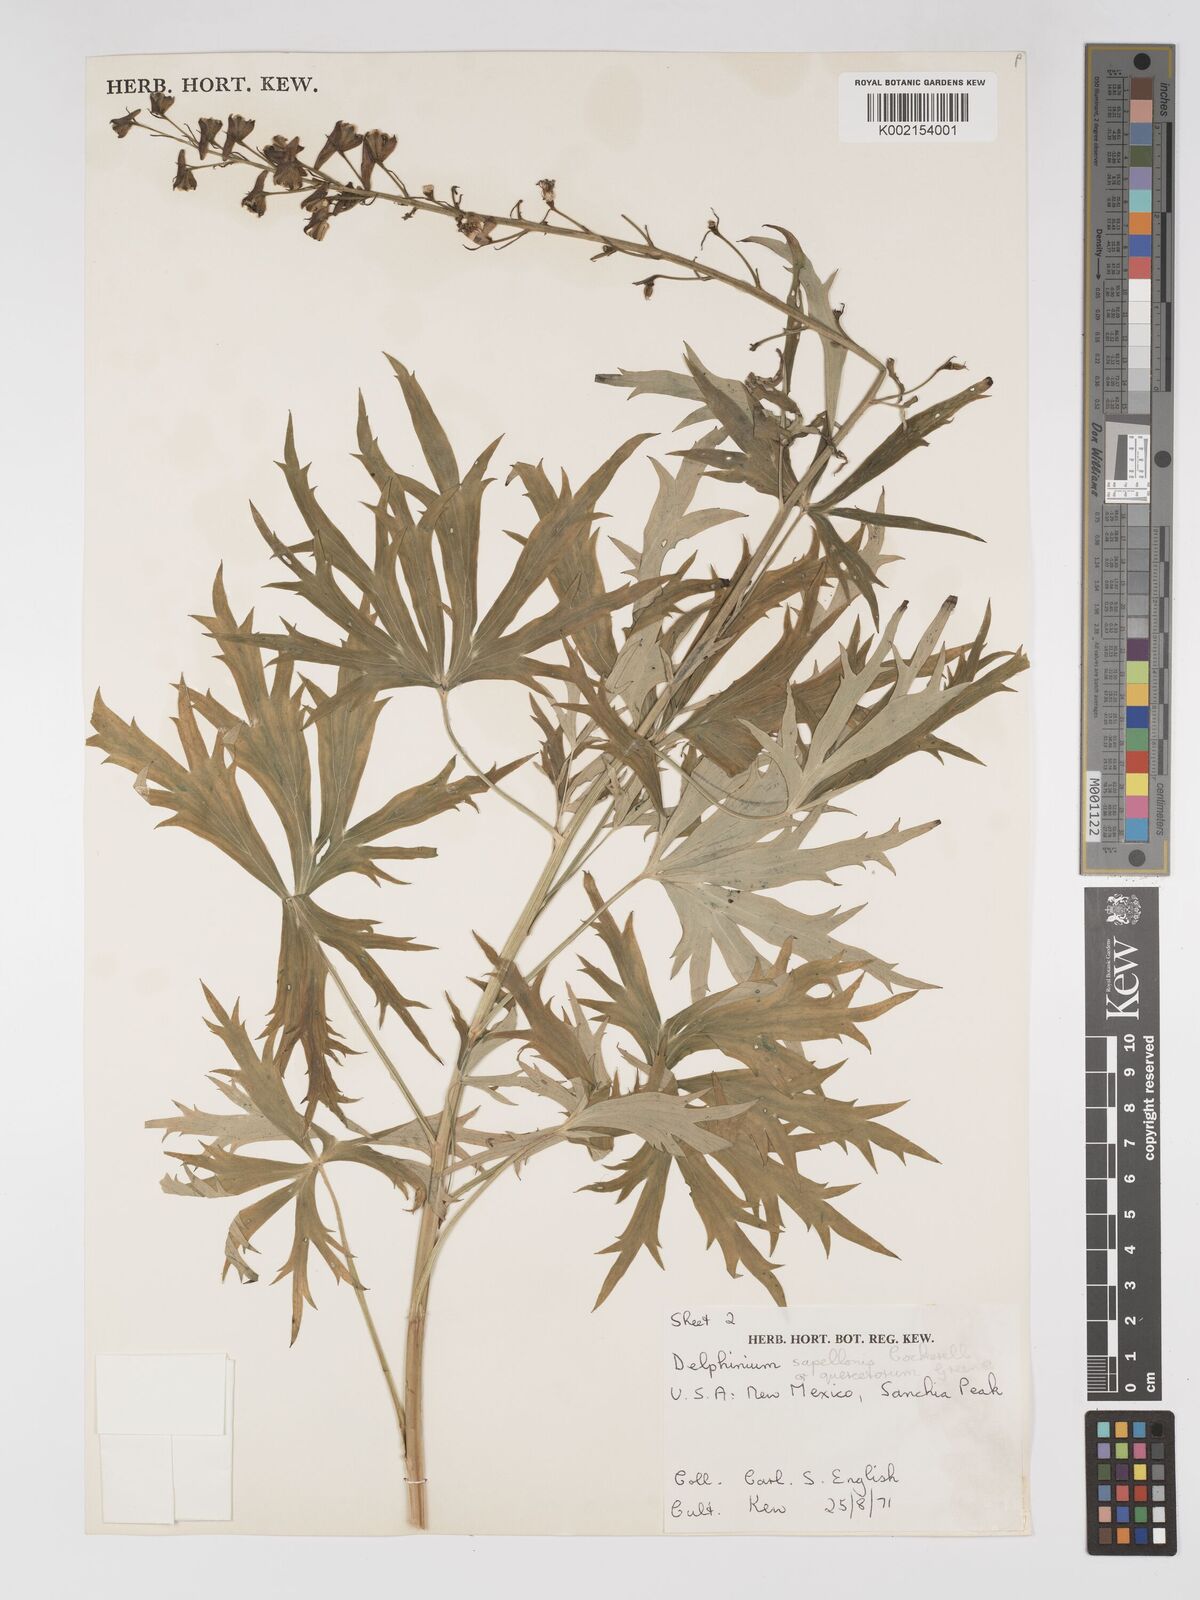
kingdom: Plantae
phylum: Tracheophyta
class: Magnoliopsida
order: Ranunculales
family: Ranunculaceae
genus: Delphinium
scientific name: Delphinium barbeyi
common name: Subalpine larkspur
